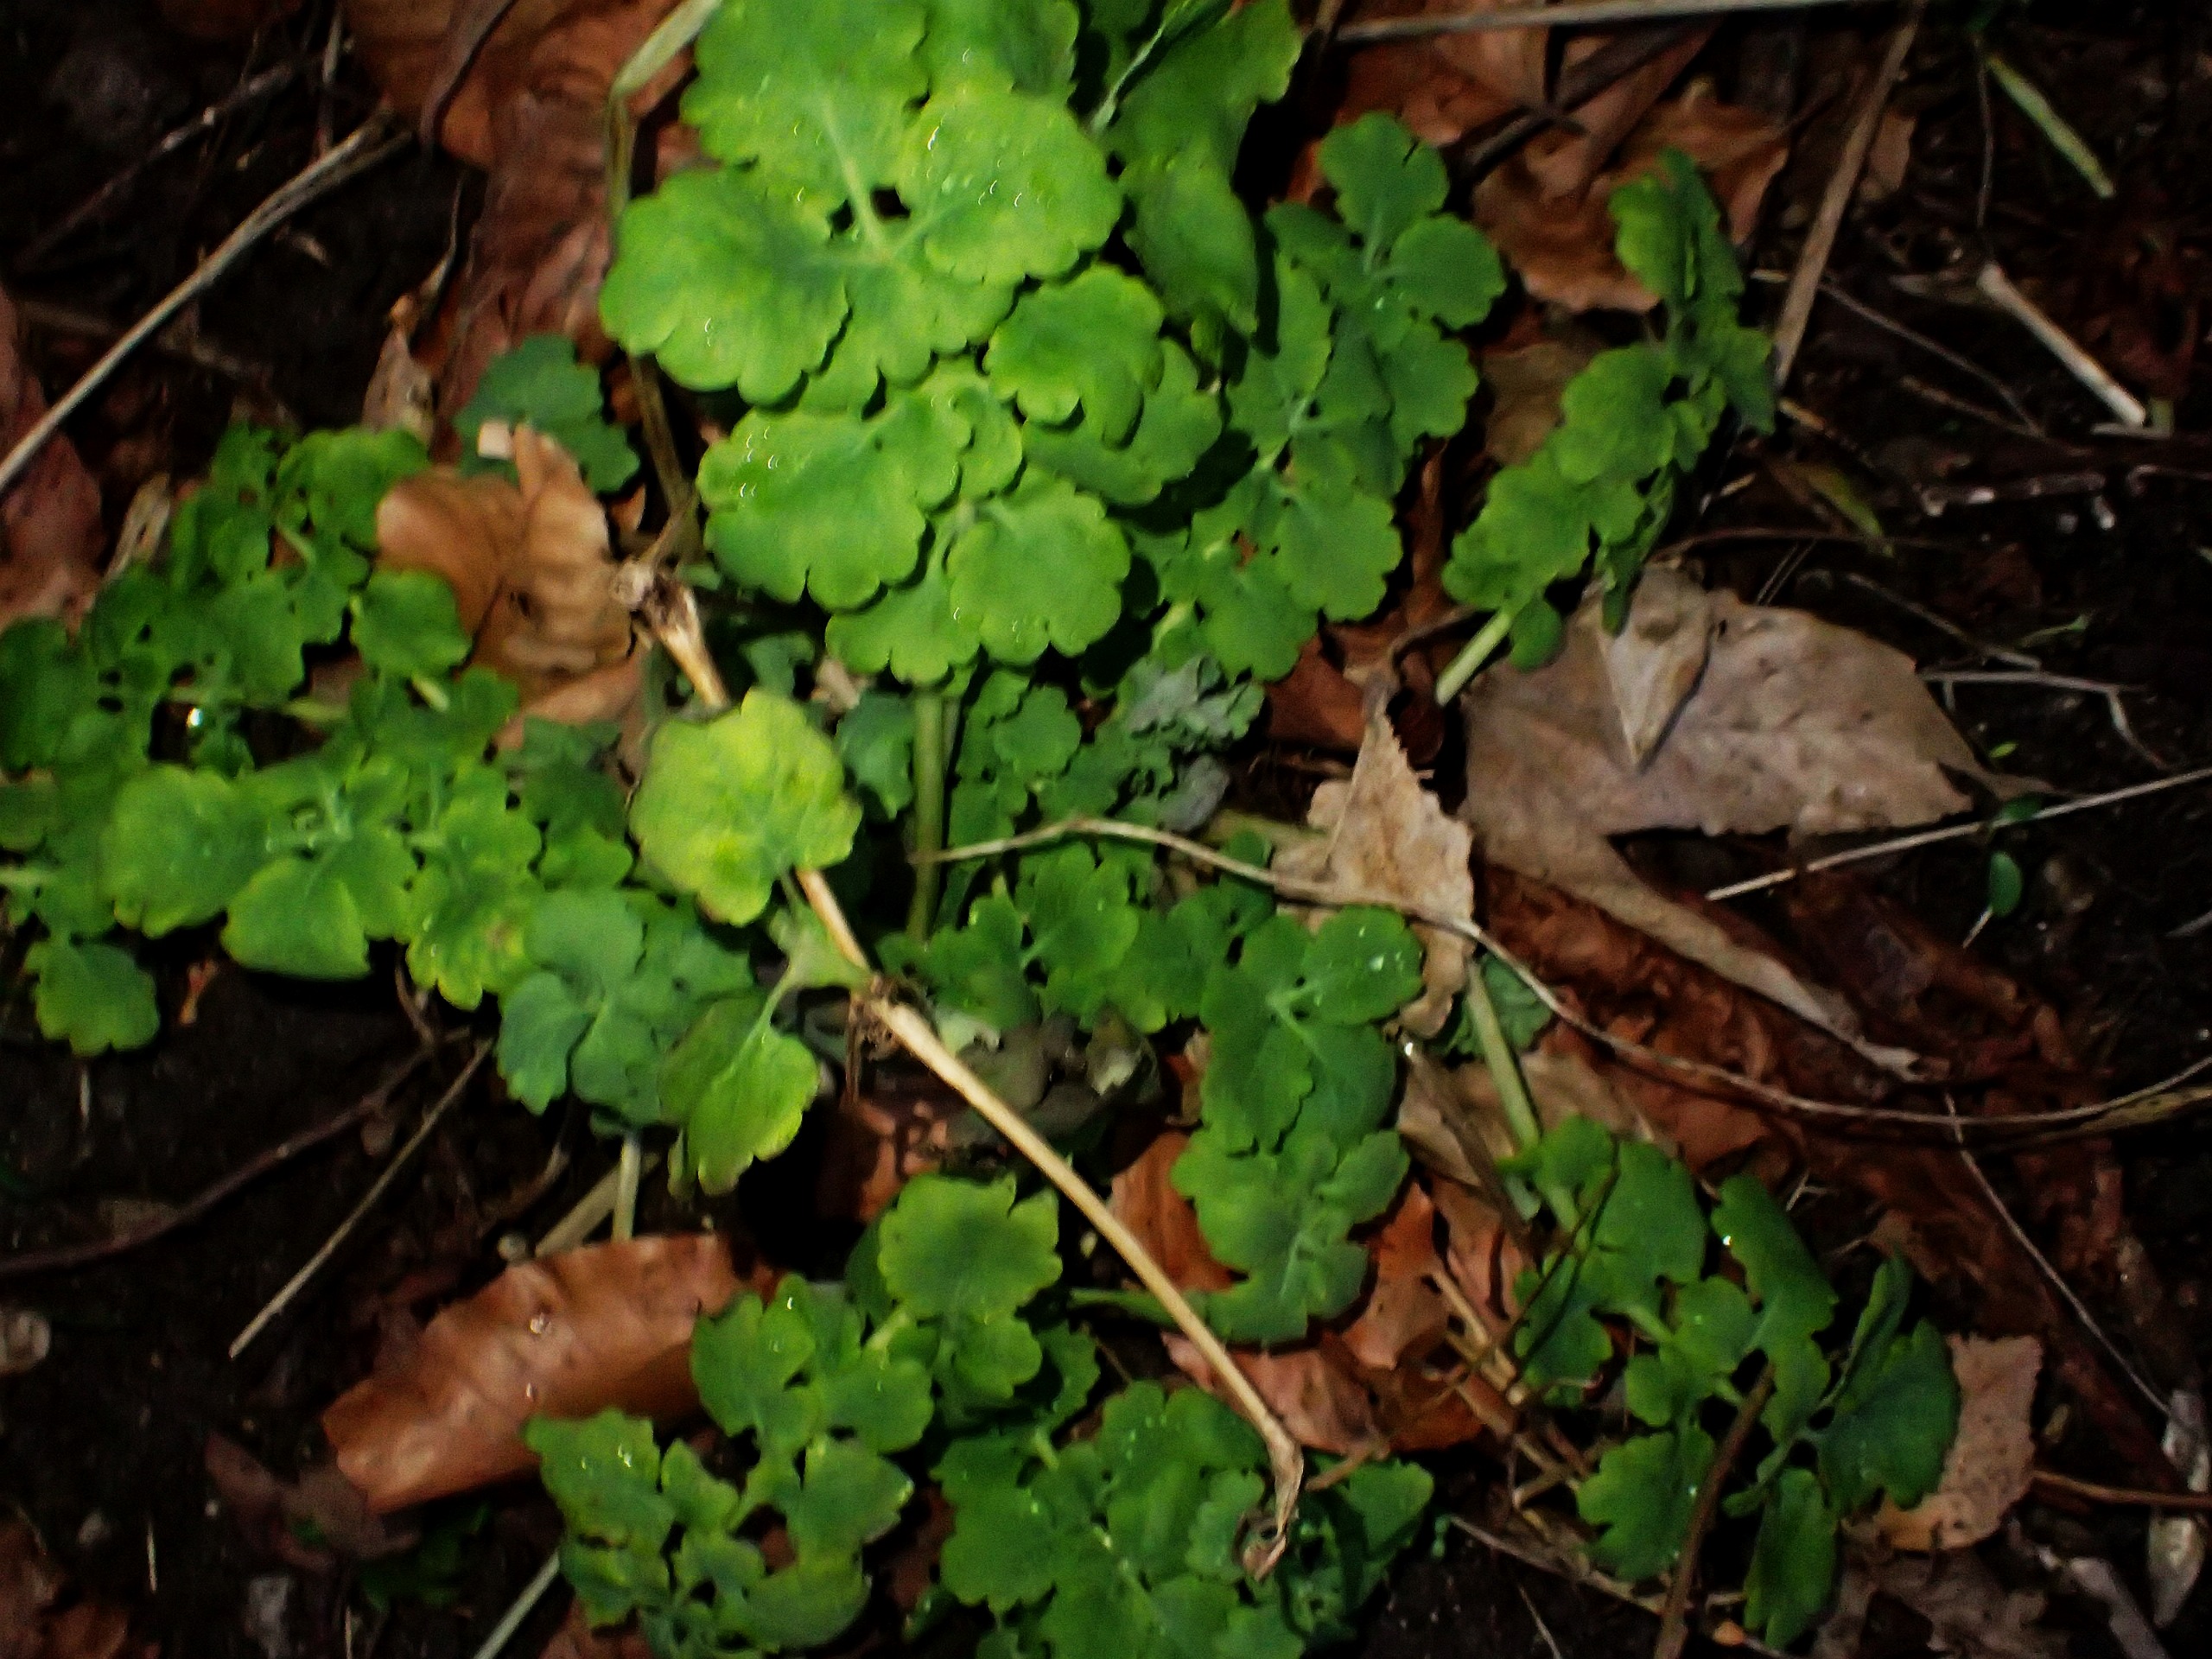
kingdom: Plantae
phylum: Tracheophyta
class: Magnoliopsida
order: Ranunculales
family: Papaveraceae
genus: Chelidonium
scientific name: Chelidonium majus
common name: Svaleurt
